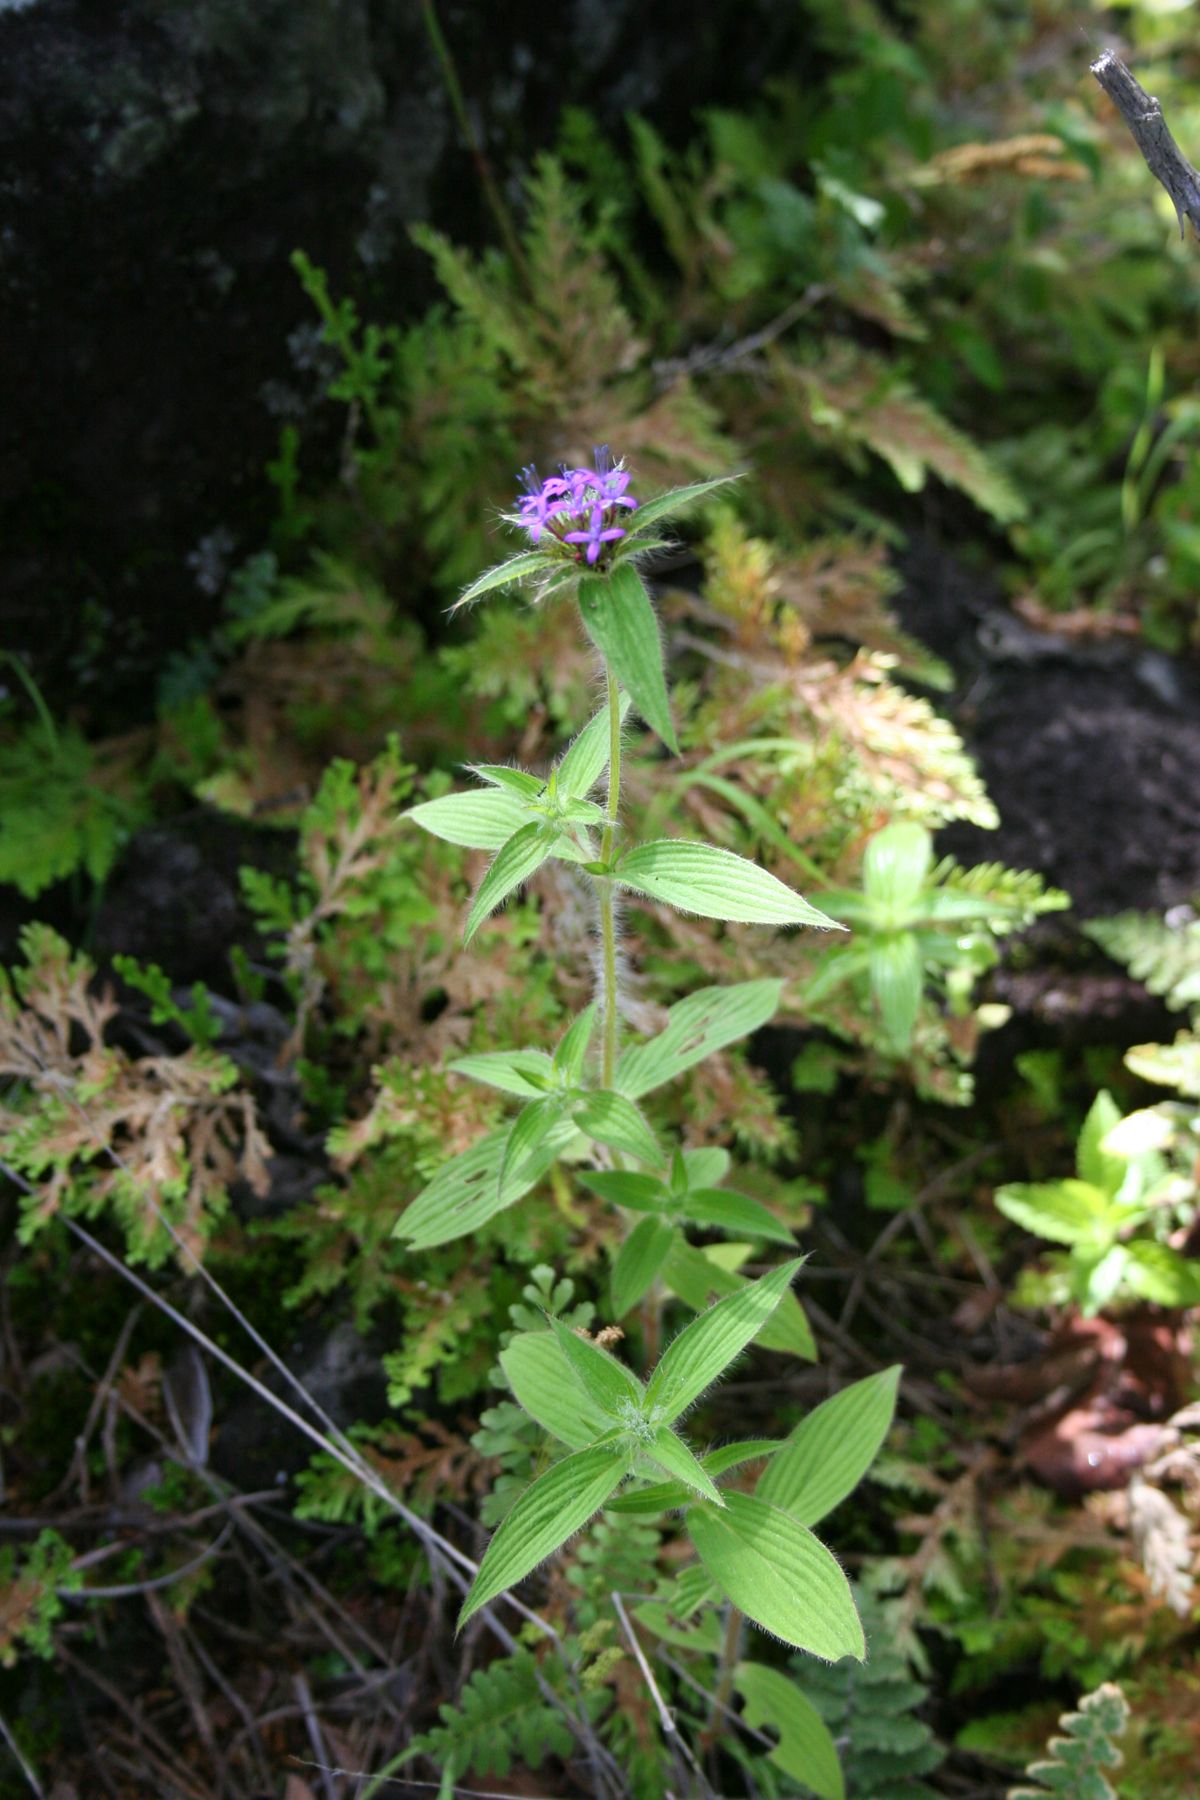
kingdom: Plantae
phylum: Tracheophyta
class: Magnoliopsida
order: Gentianales
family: Rubiaceae
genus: Crusea
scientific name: Crusea longiflora
